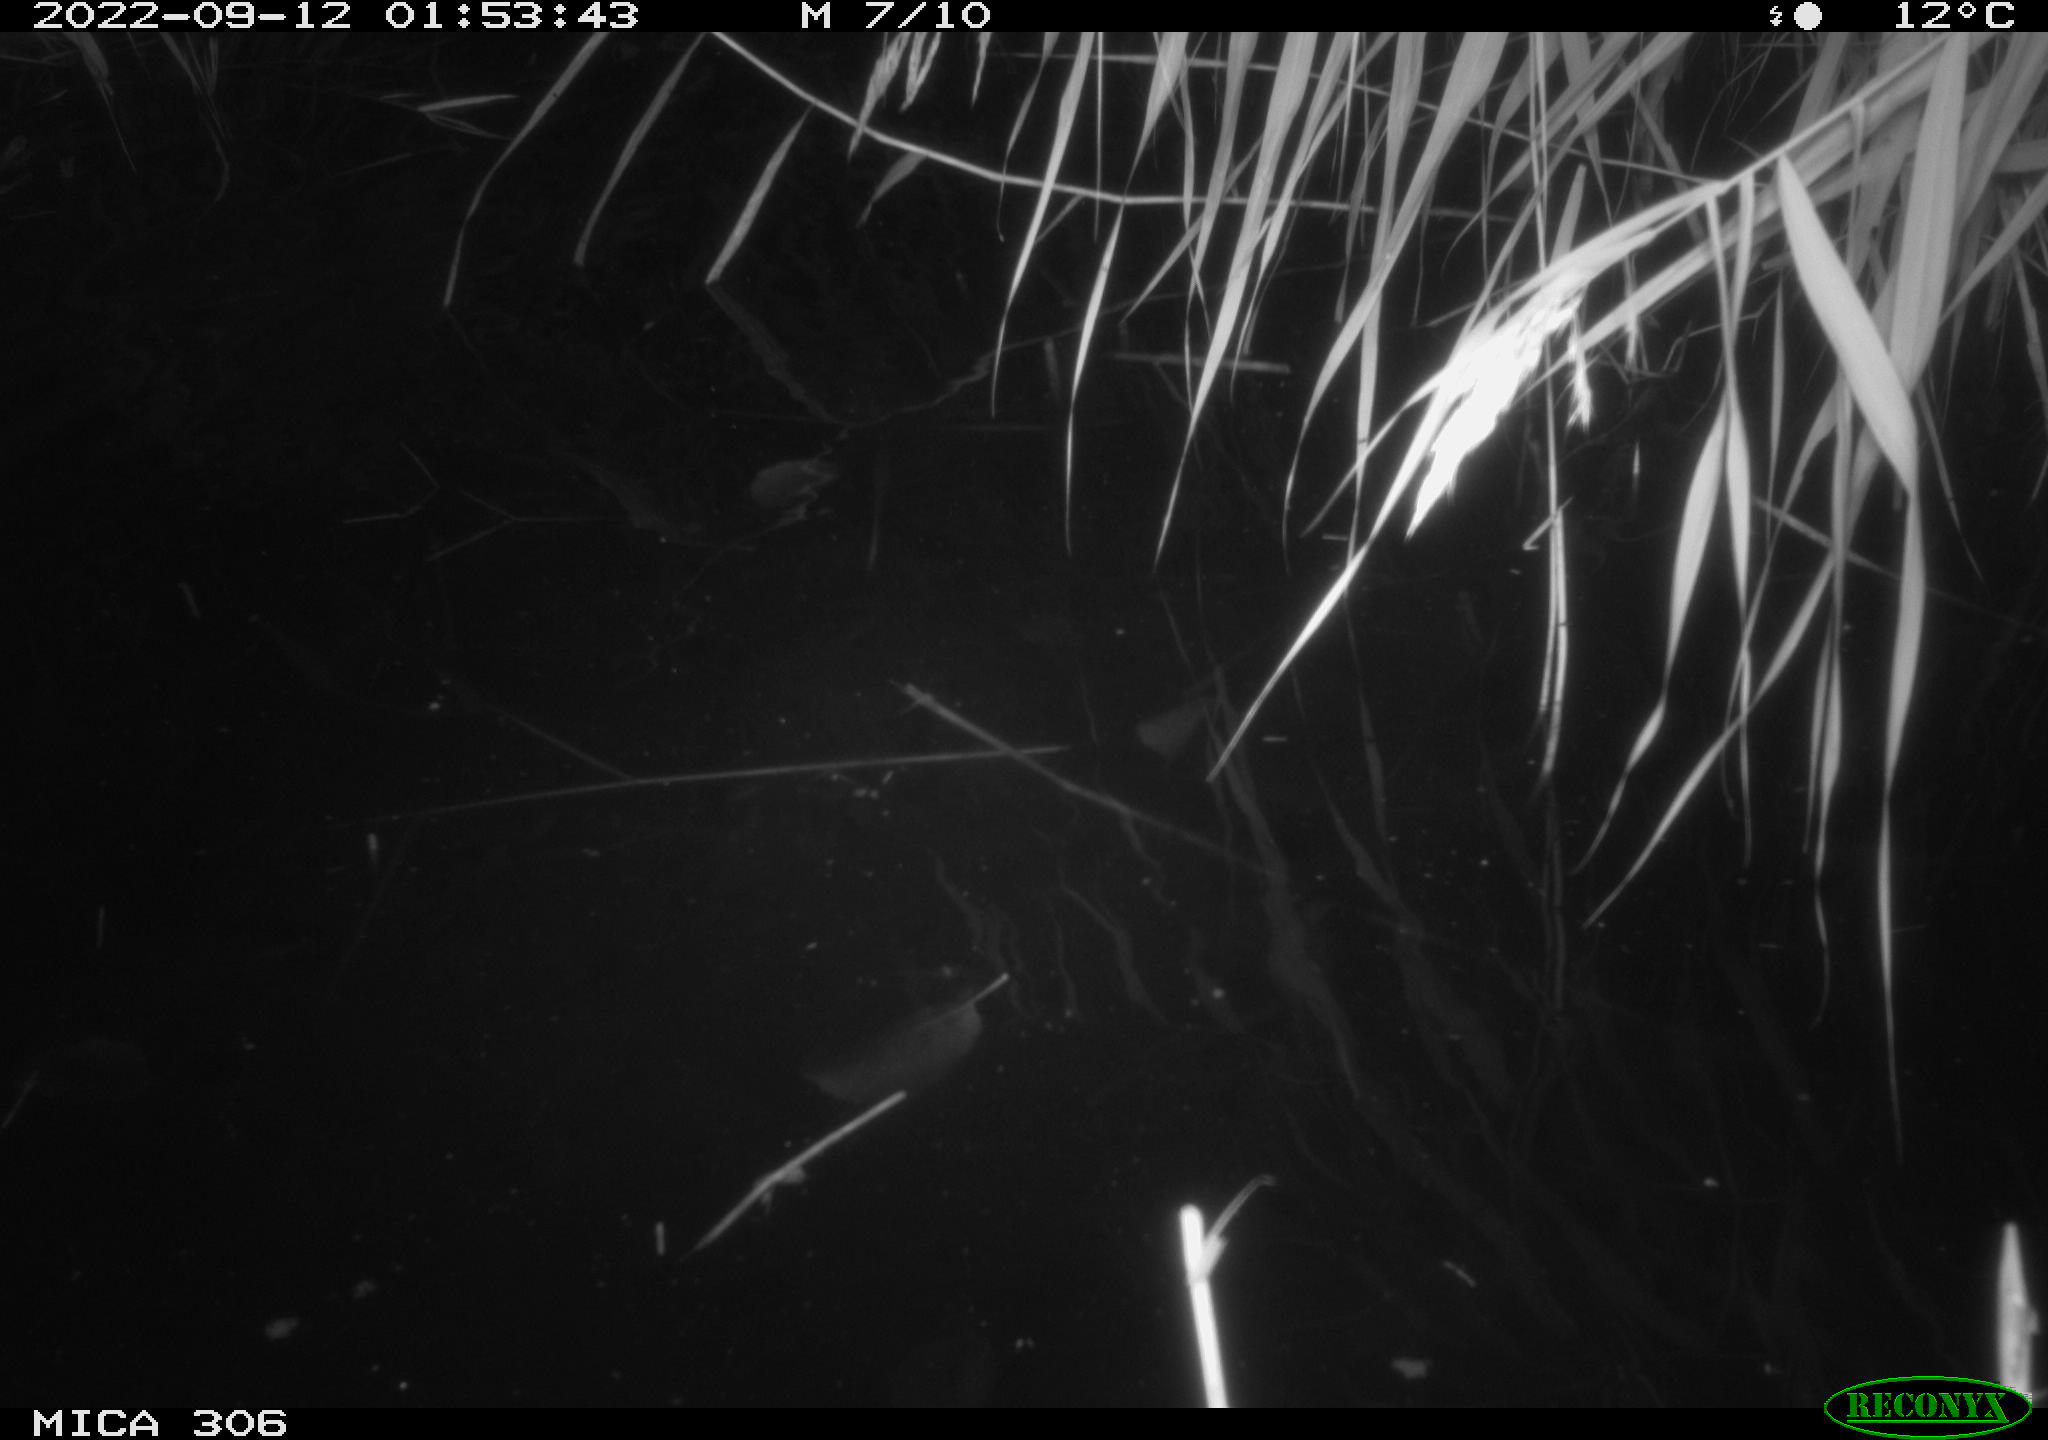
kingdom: Animalia
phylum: Chordata
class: Mammalia
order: Rodentia
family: Muridae
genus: Rattus
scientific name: Rattus norvegicus
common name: Brown rat
